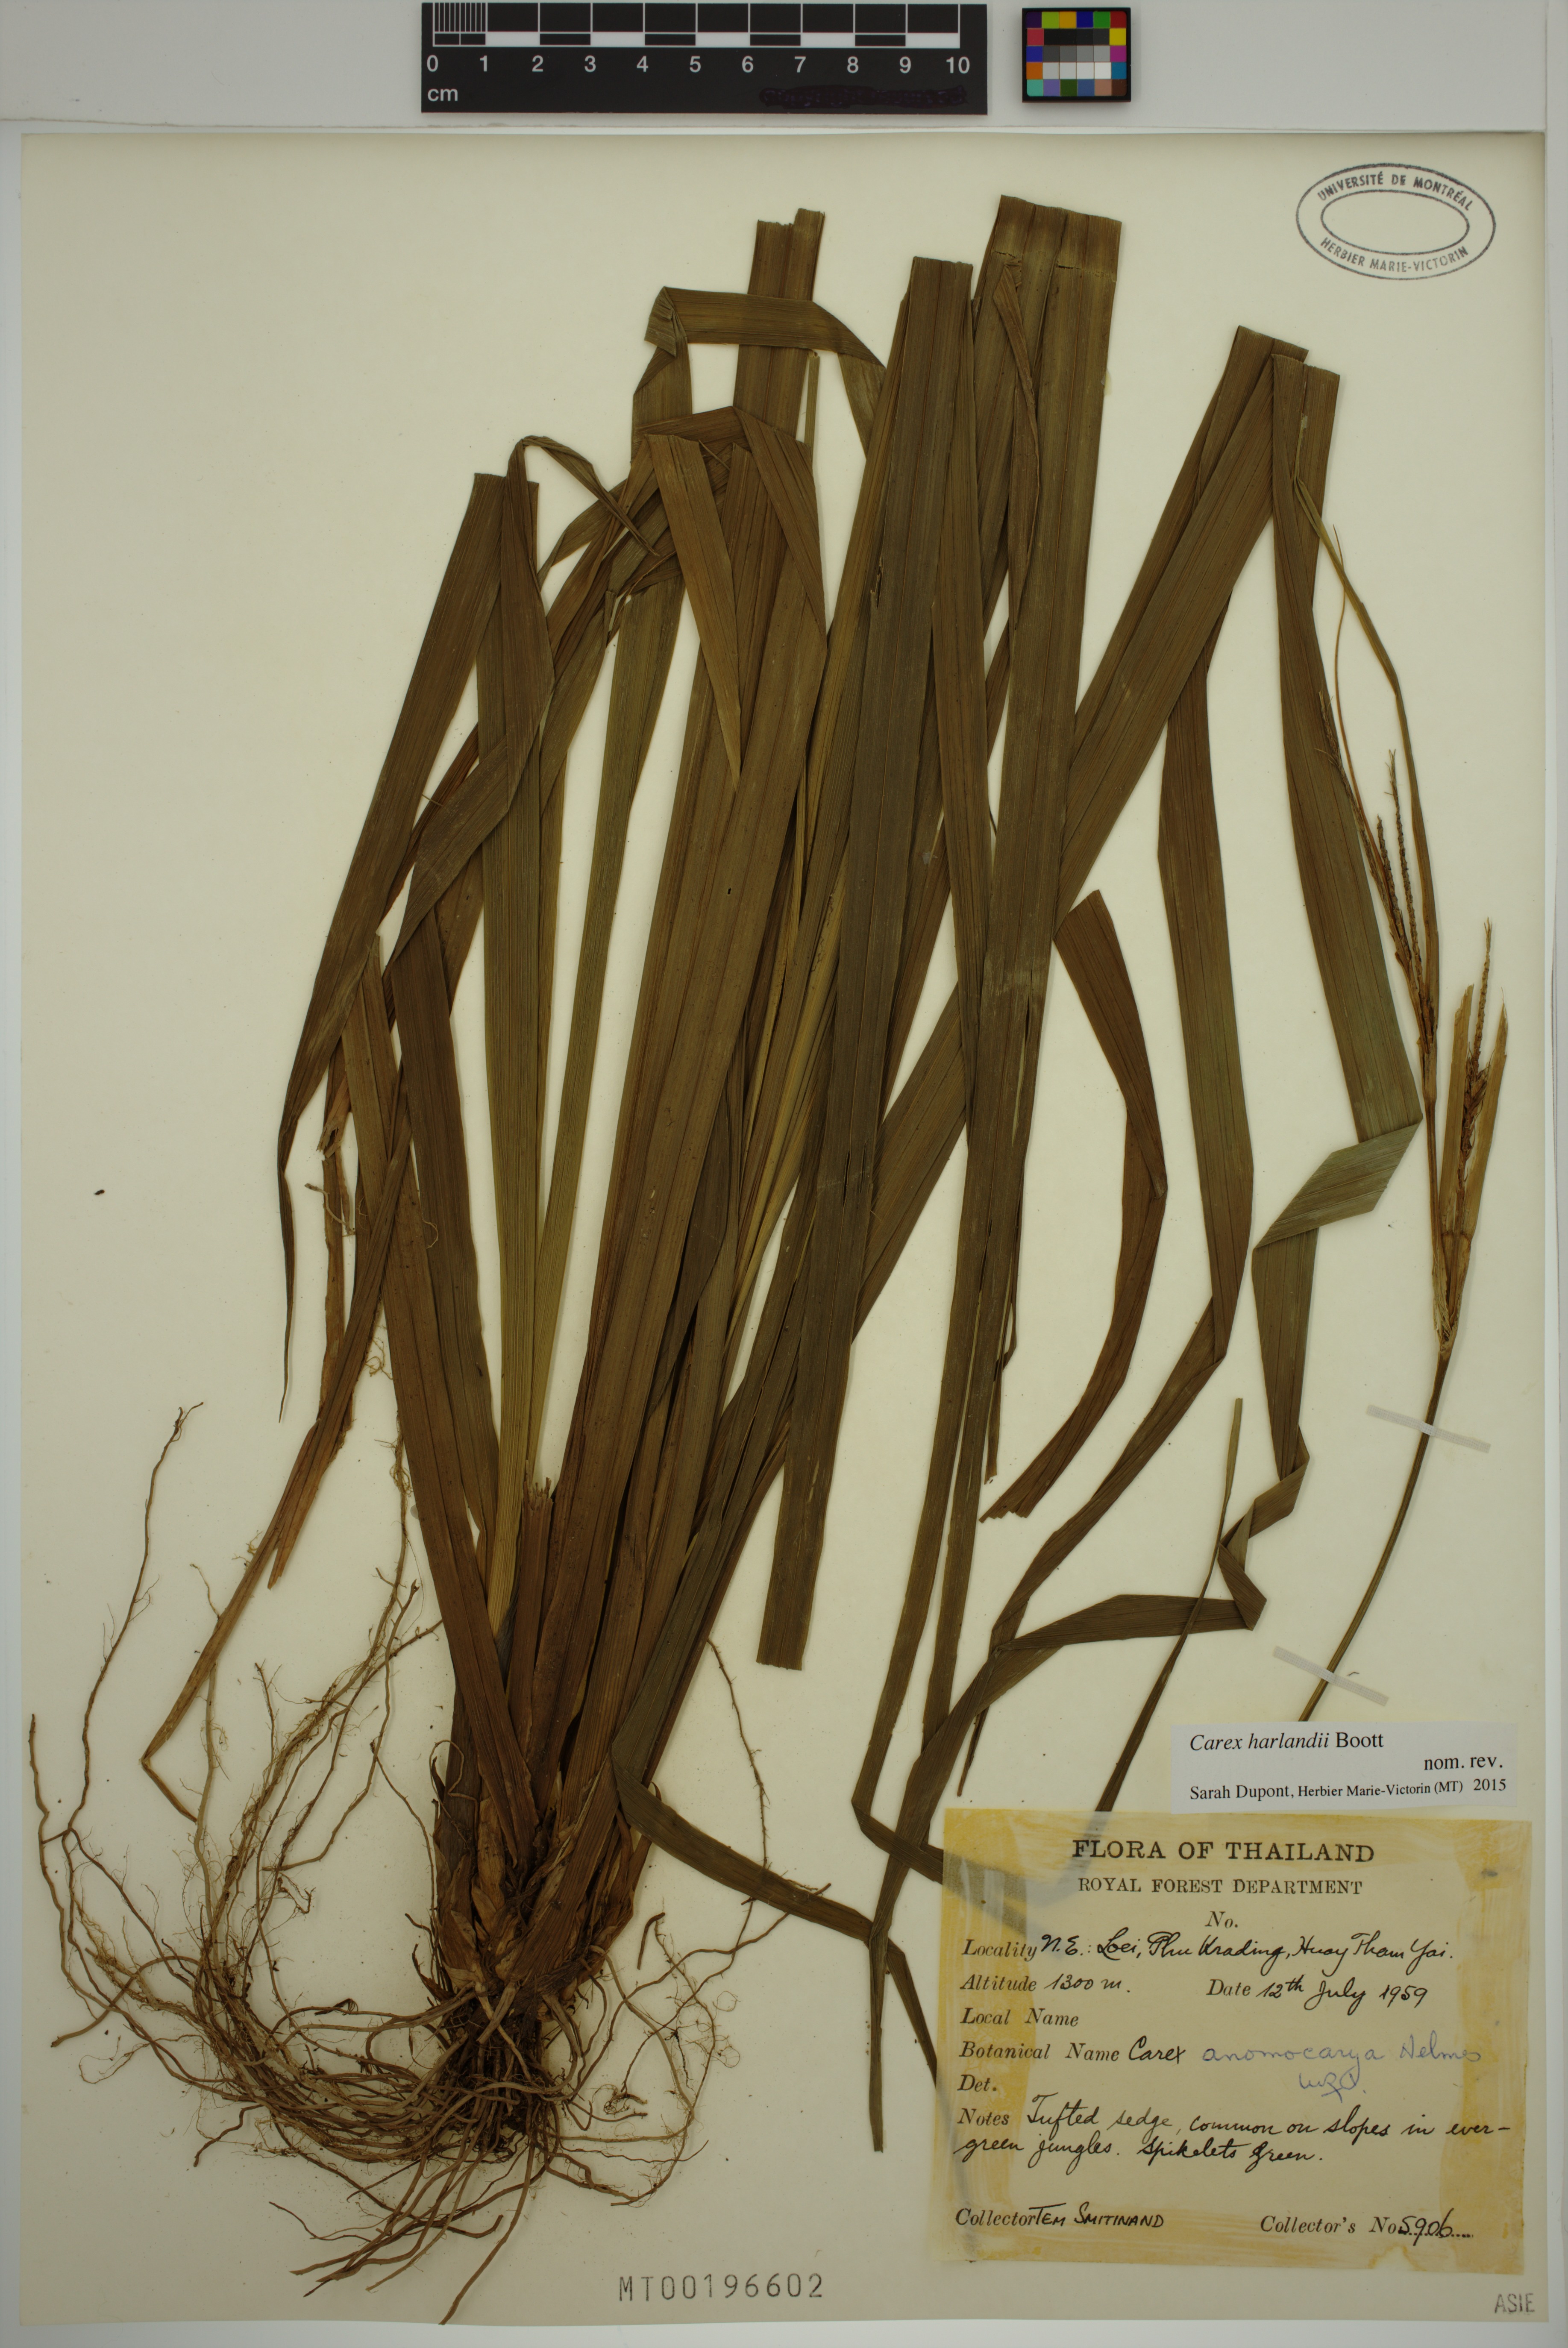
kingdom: Plantae
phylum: Tracheophyta
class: Liliopsida
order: Poales
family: Cyperaceae
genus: Carex
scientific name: Carex harlandii
